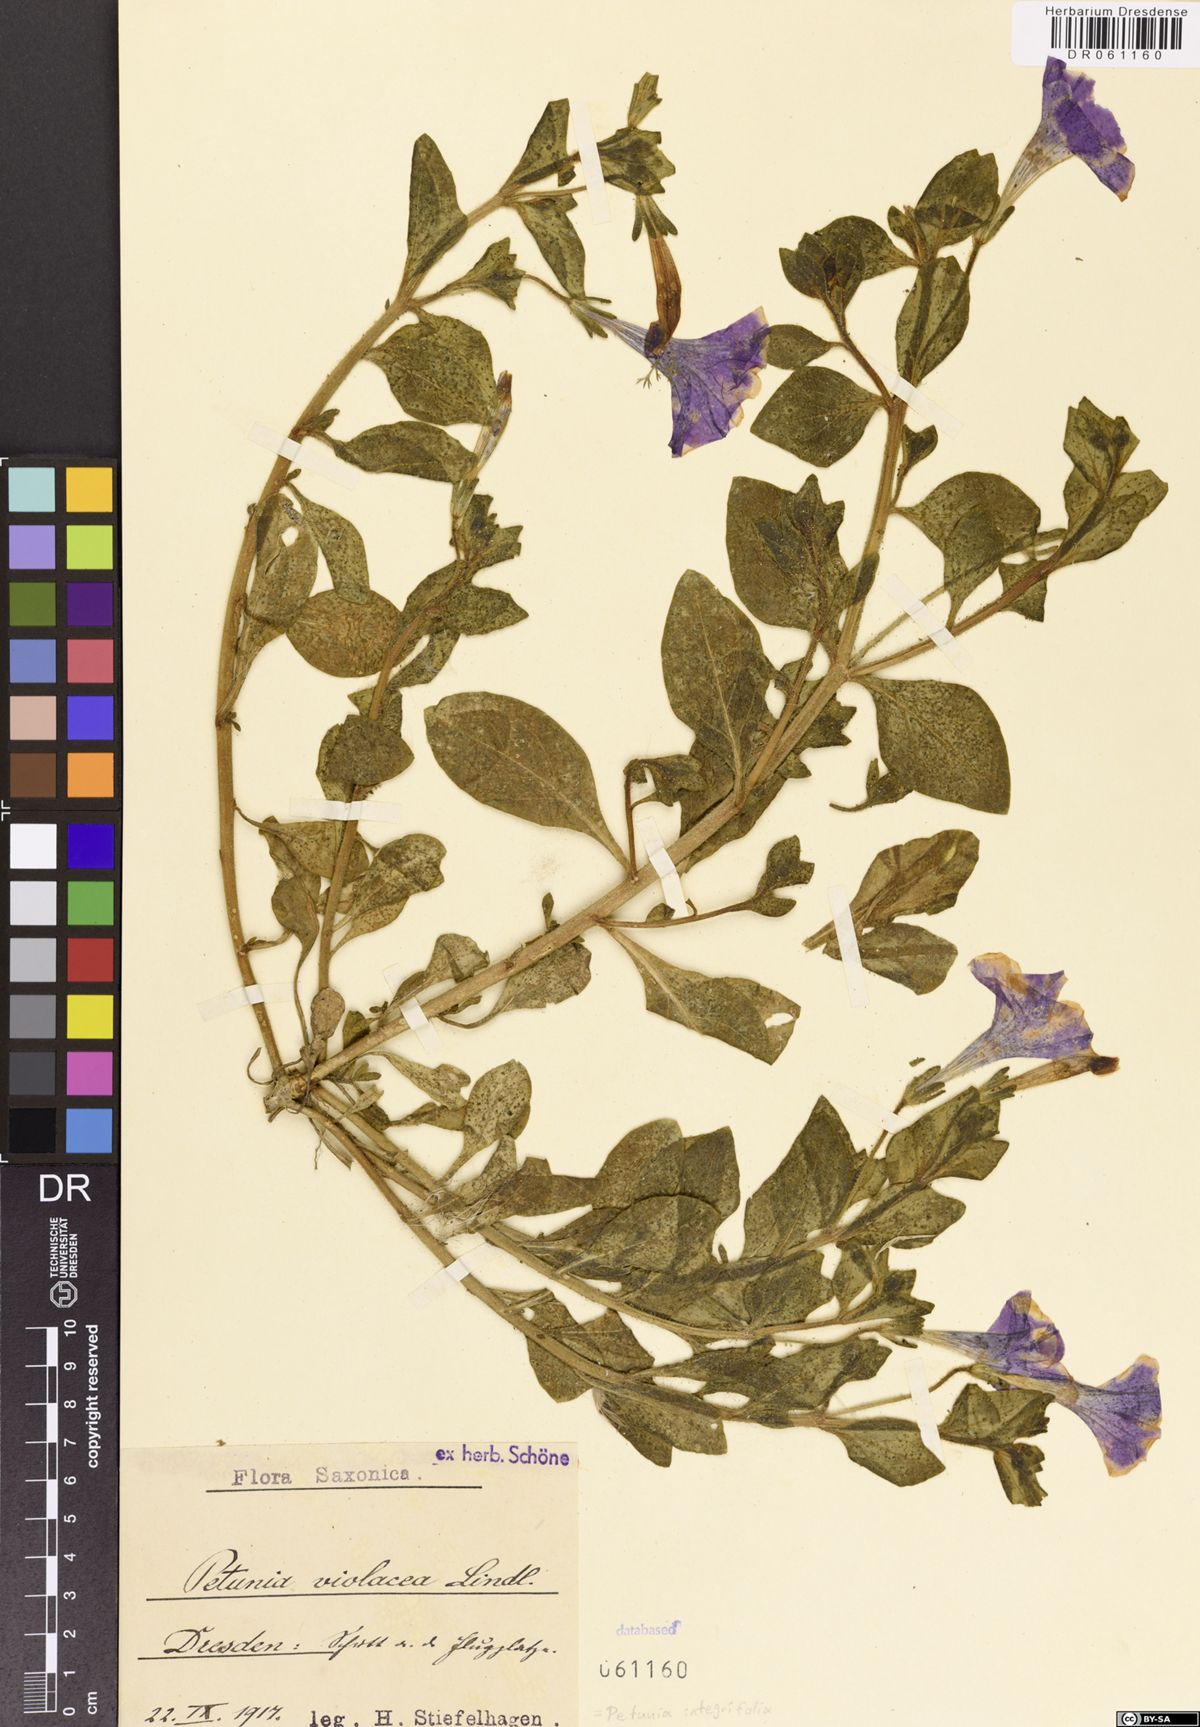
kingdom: Plantae
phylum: Tracheophyta
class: Magnoliopsida
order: Solanales
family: Solanaceae
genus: Petunia
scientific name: Petunia integrifolia
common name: Violet-flower petunia
